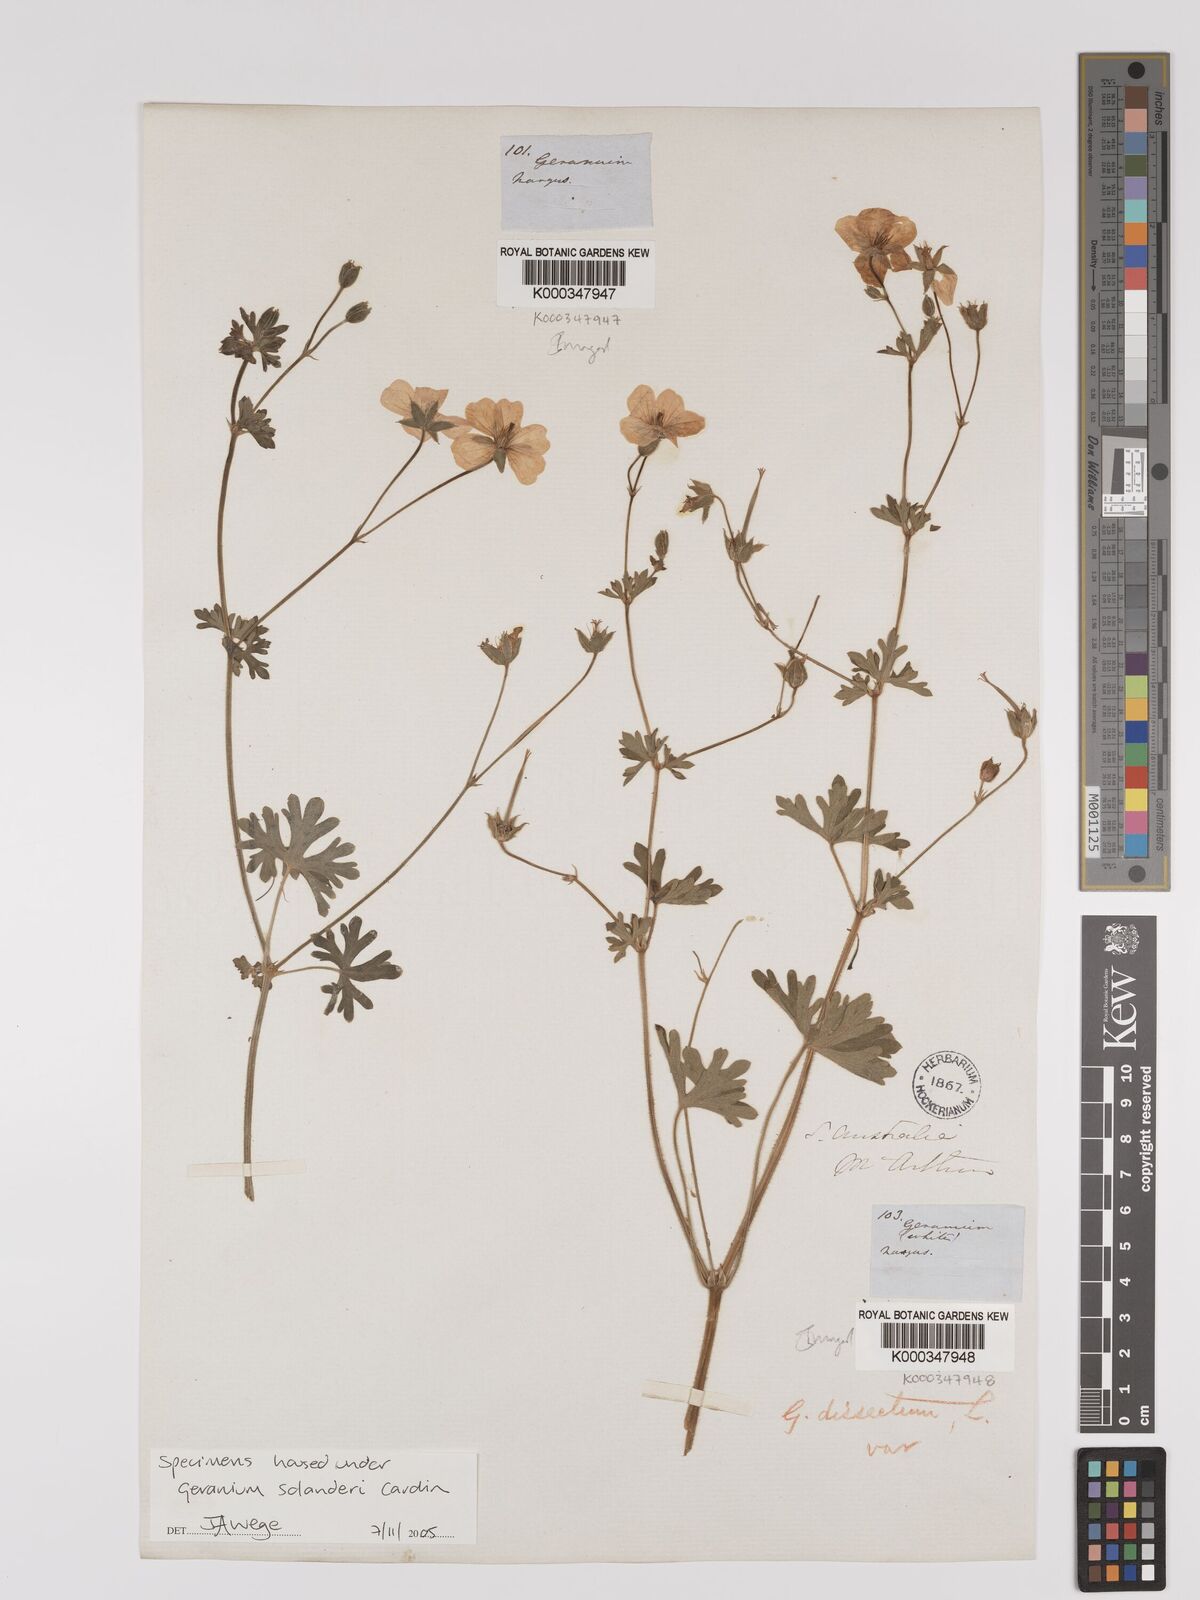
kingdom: Plantae
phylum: Tracheophyta
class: Magnoliopsida
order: Geraniales
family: Geraniaceae
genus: Geranium
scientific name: Geranium solanderi
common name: Solander's geranium
